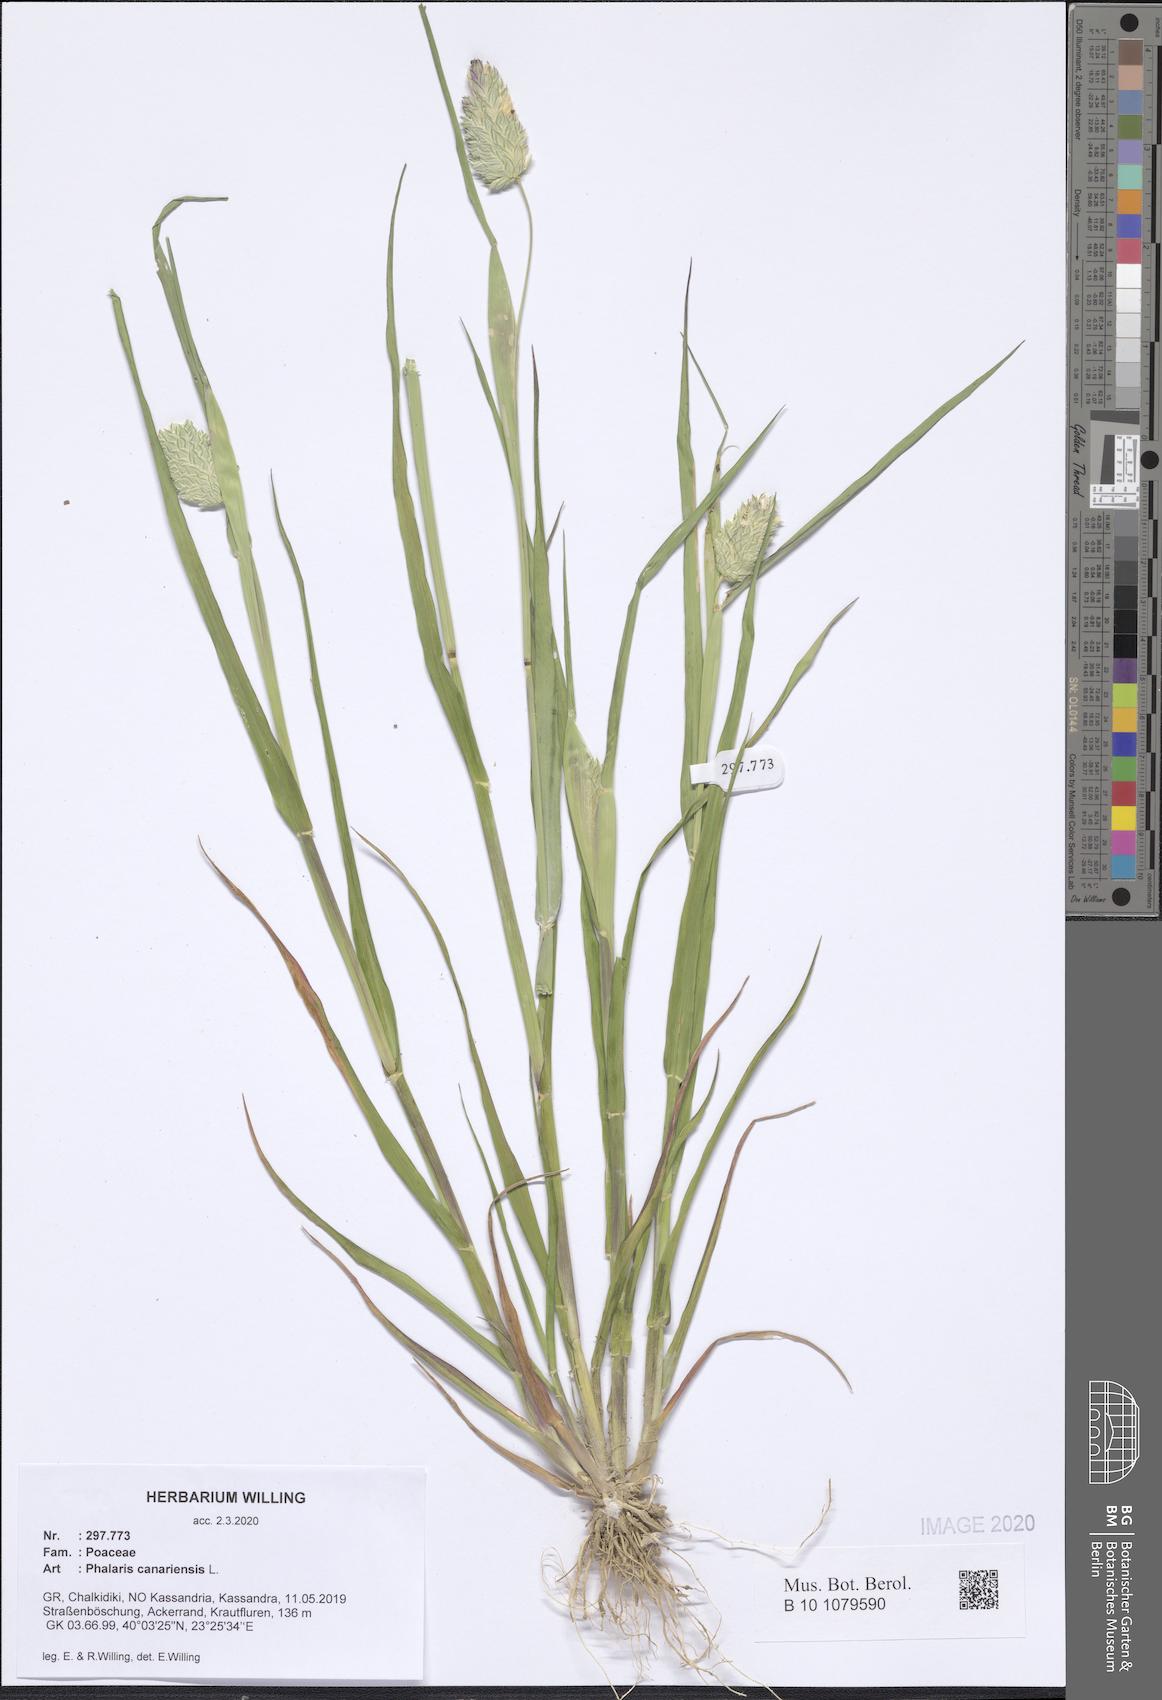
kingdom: Plantae
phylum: Tracheophyta
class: Liliopsida
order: Poales
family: Poaceae
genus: Phalaris
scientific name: Phalaris canariensis
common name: Annual canarygrass
